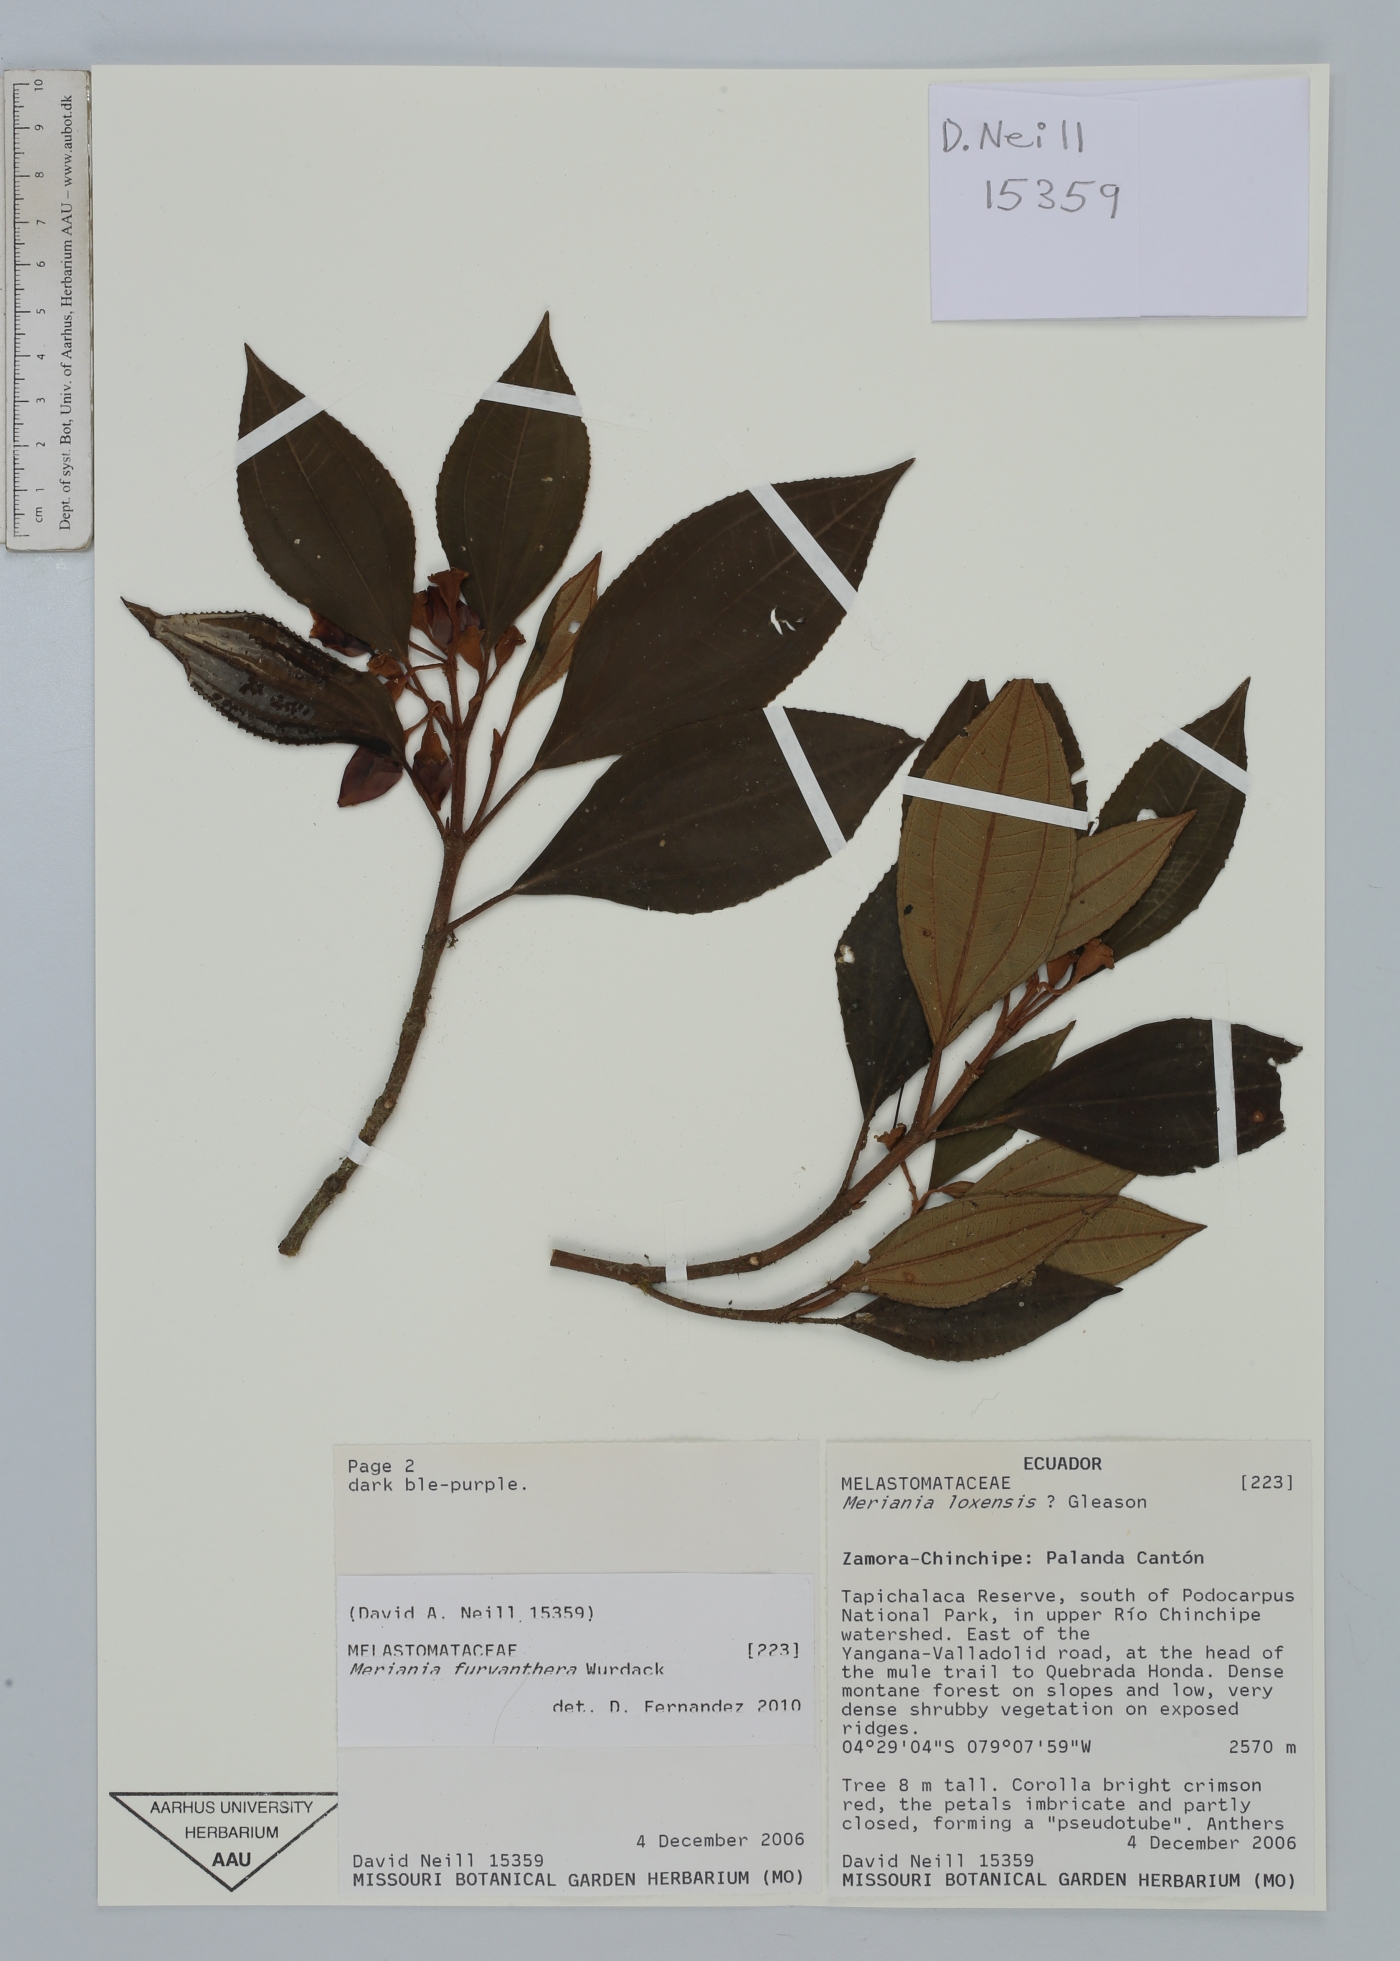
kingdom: Plantae
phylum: Tracheophyta
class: Magnoliopsida
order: Myrtales
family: Melastomataceae
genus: Meriania
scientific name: Meriania furvanthera
